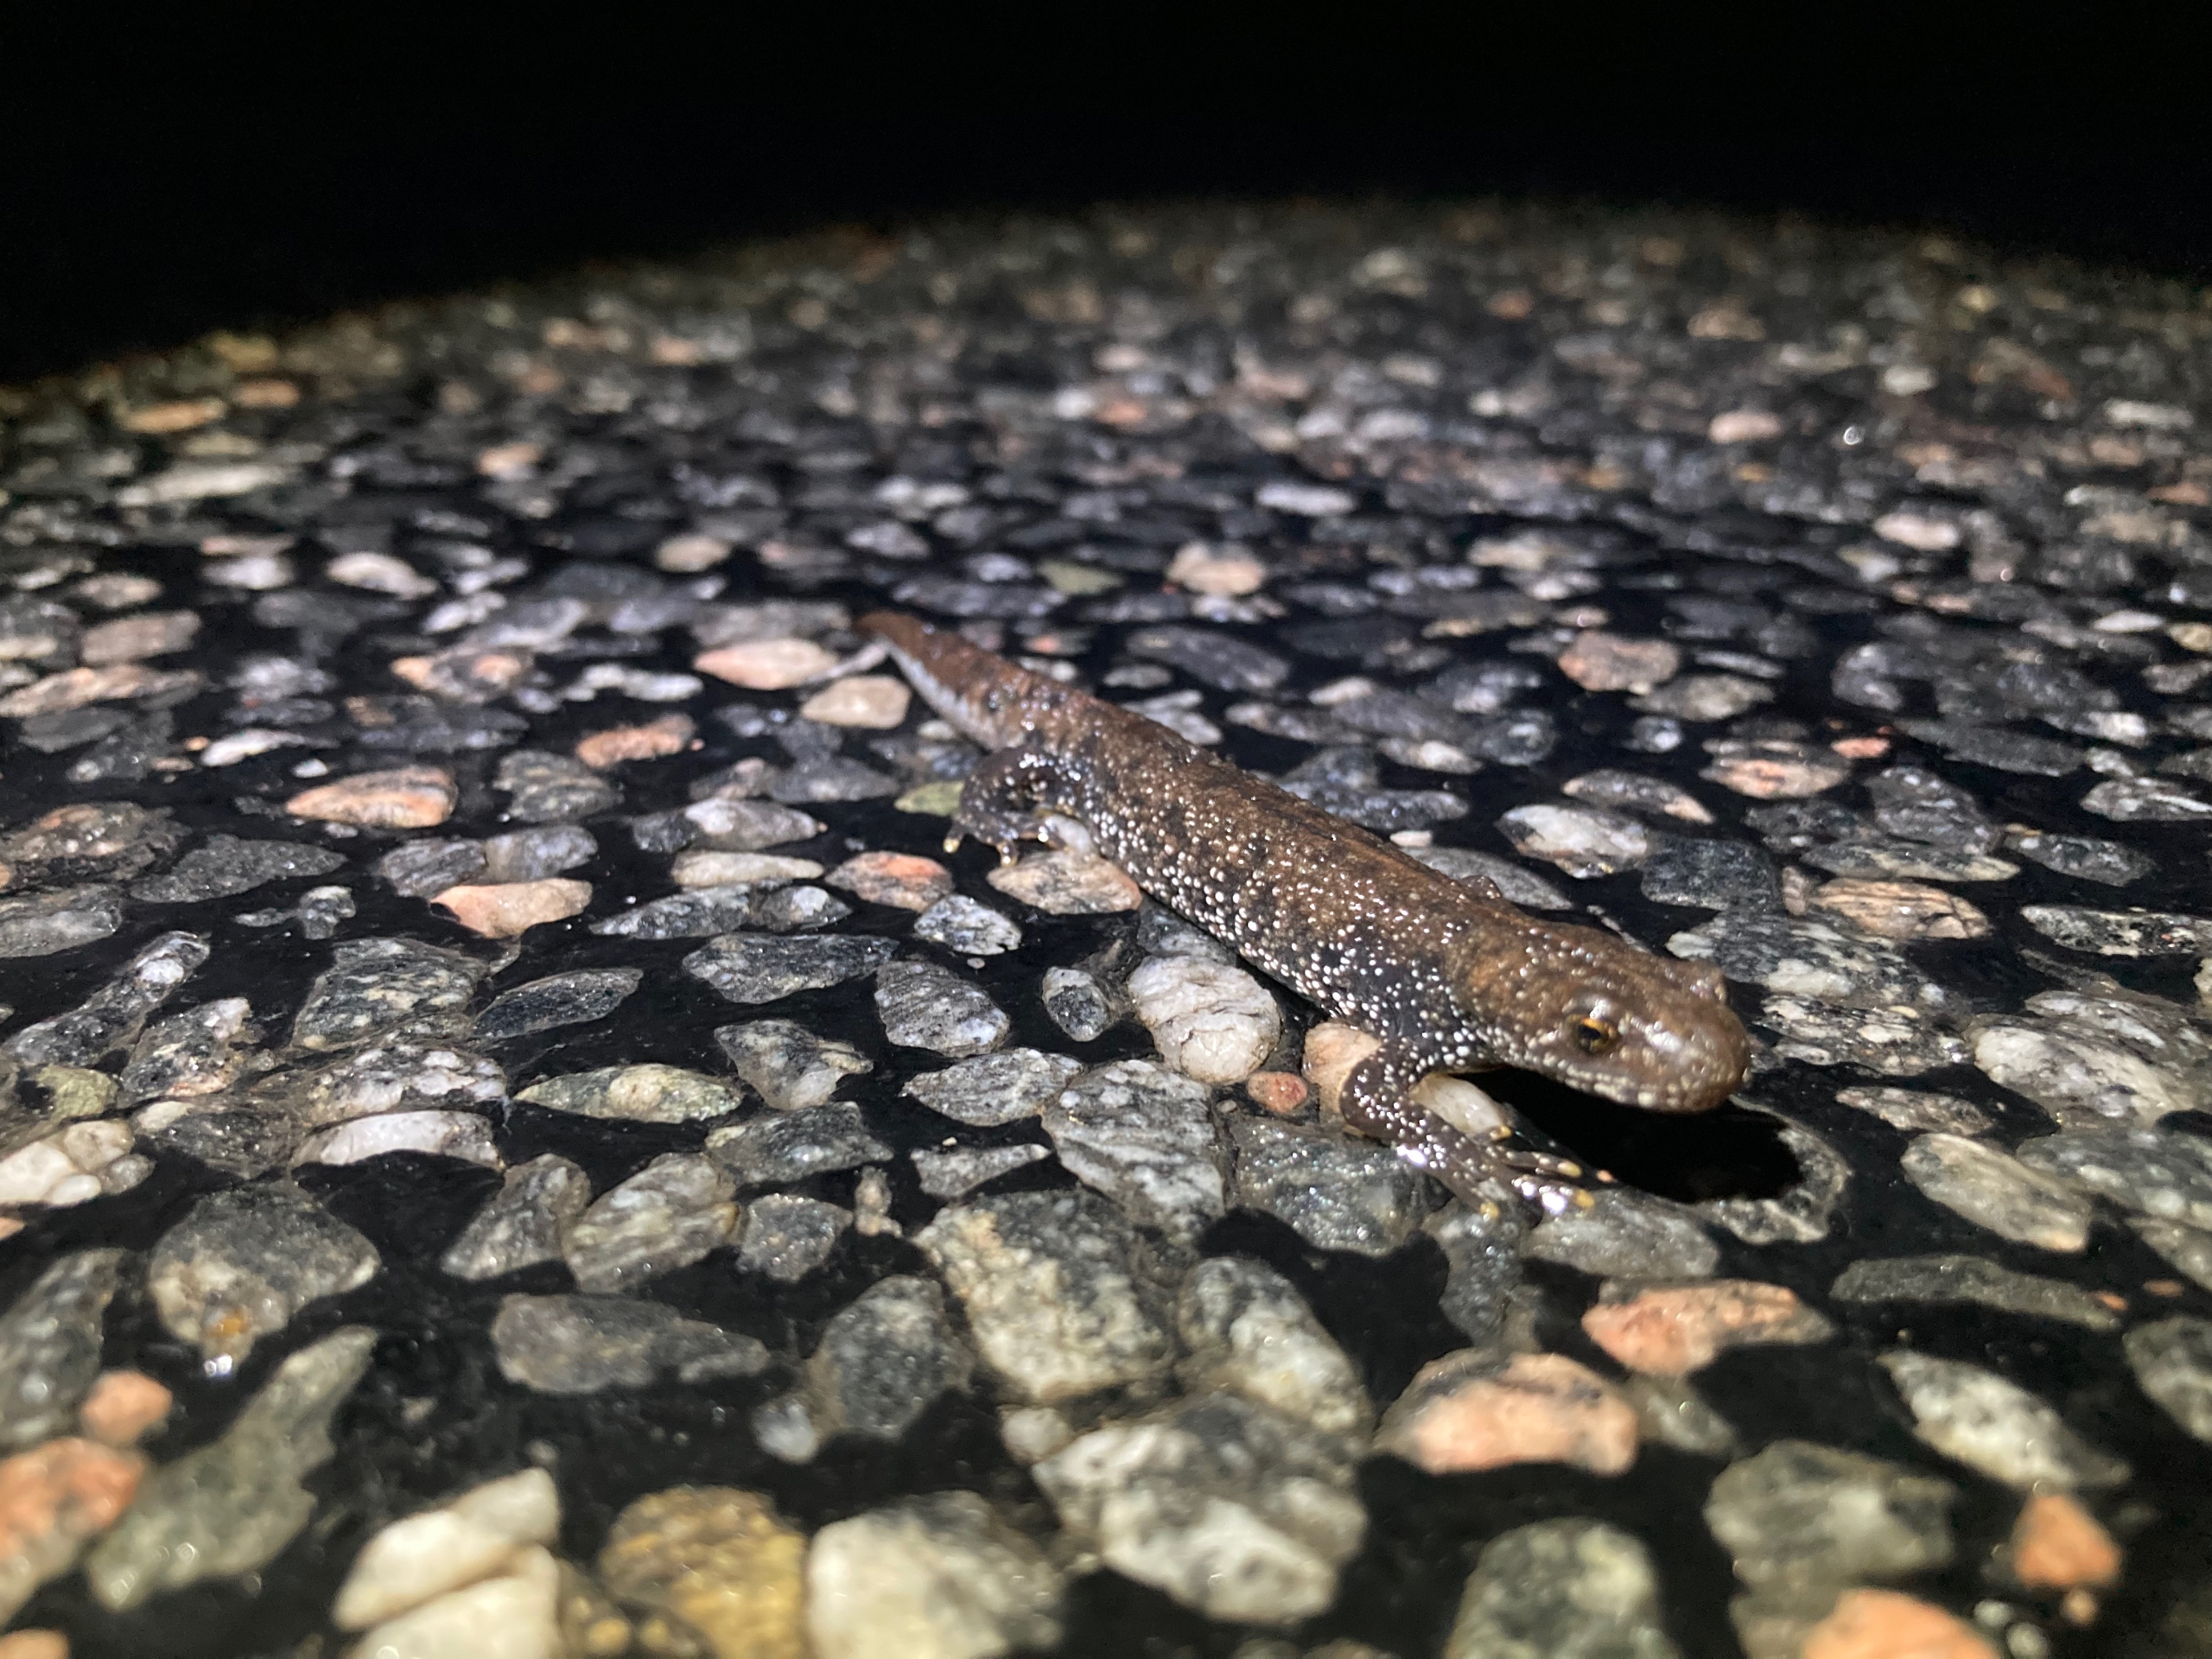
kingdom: Animalia
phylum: Chordata
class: Amphibia
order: Caudata
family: Salamandridae
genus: Triturus
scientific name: Triturus cristatus
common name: Stor vandsalamander
